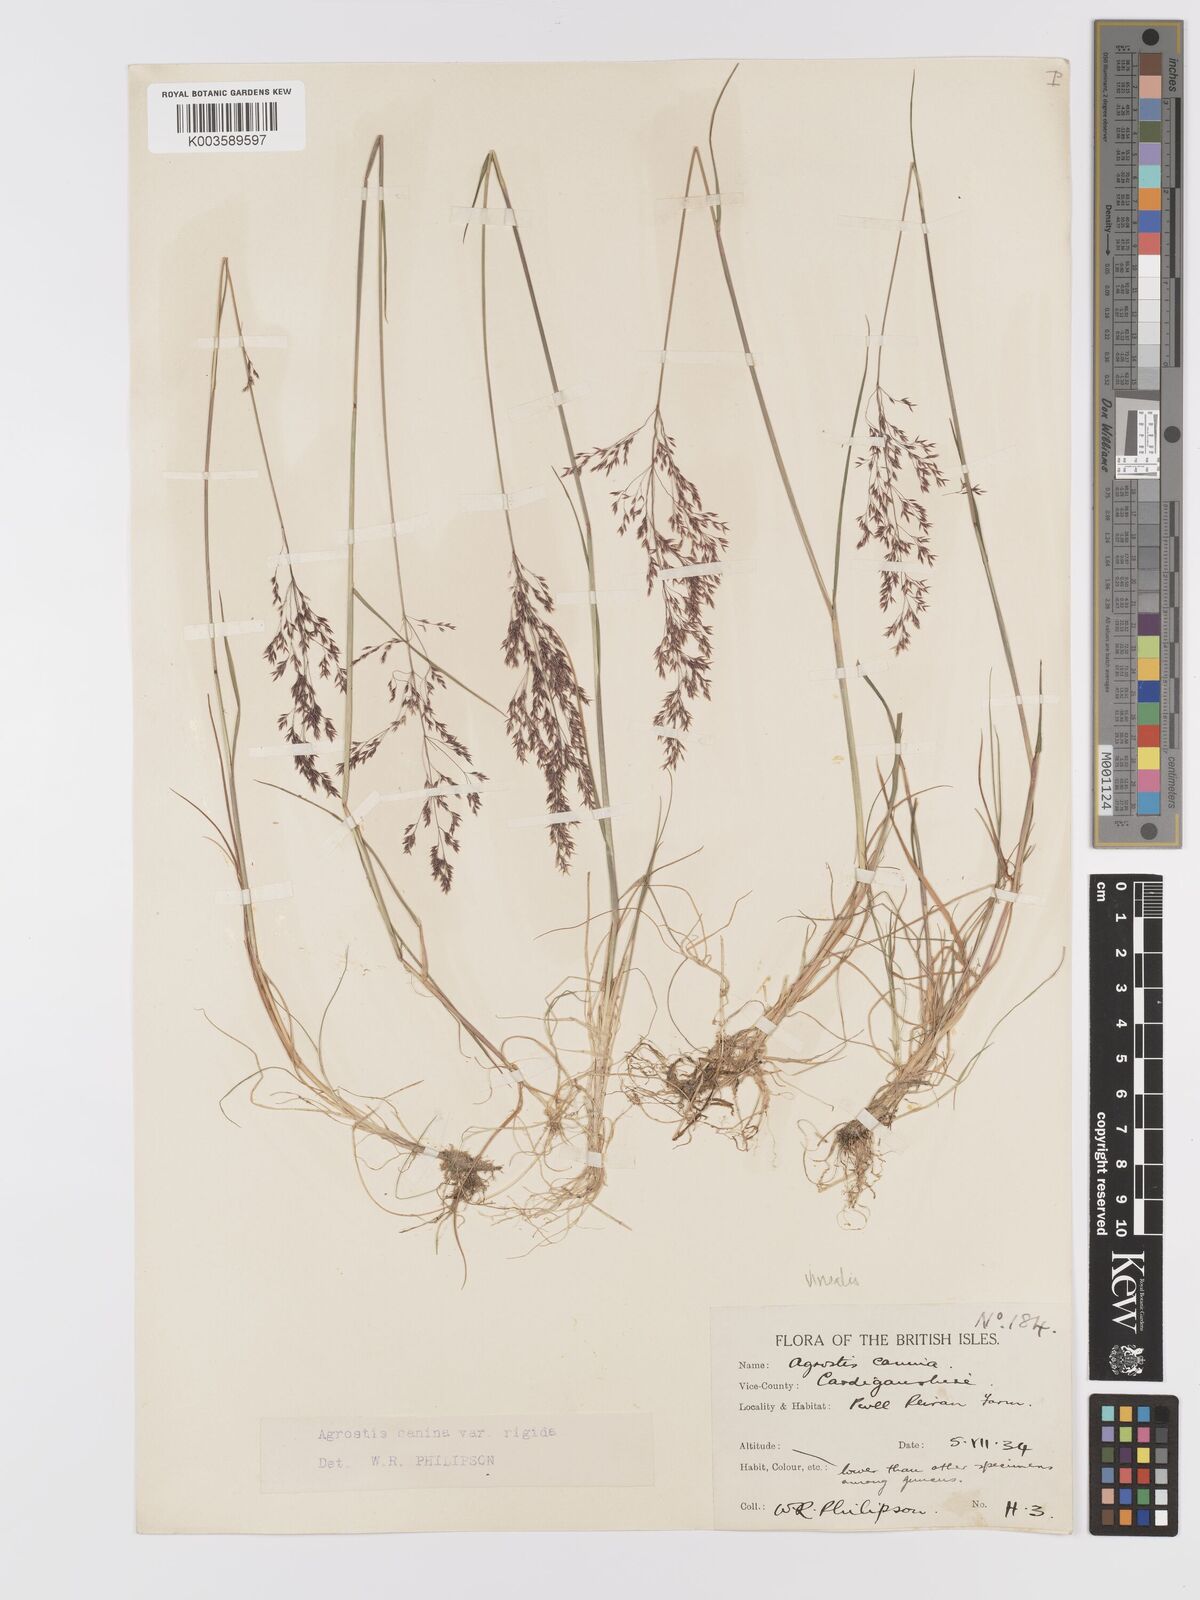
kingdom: Plantae
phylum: Tracheophyta
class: Liliopsida
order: Poales
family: Poaceae
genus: Agrostis
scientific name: Agrostis
